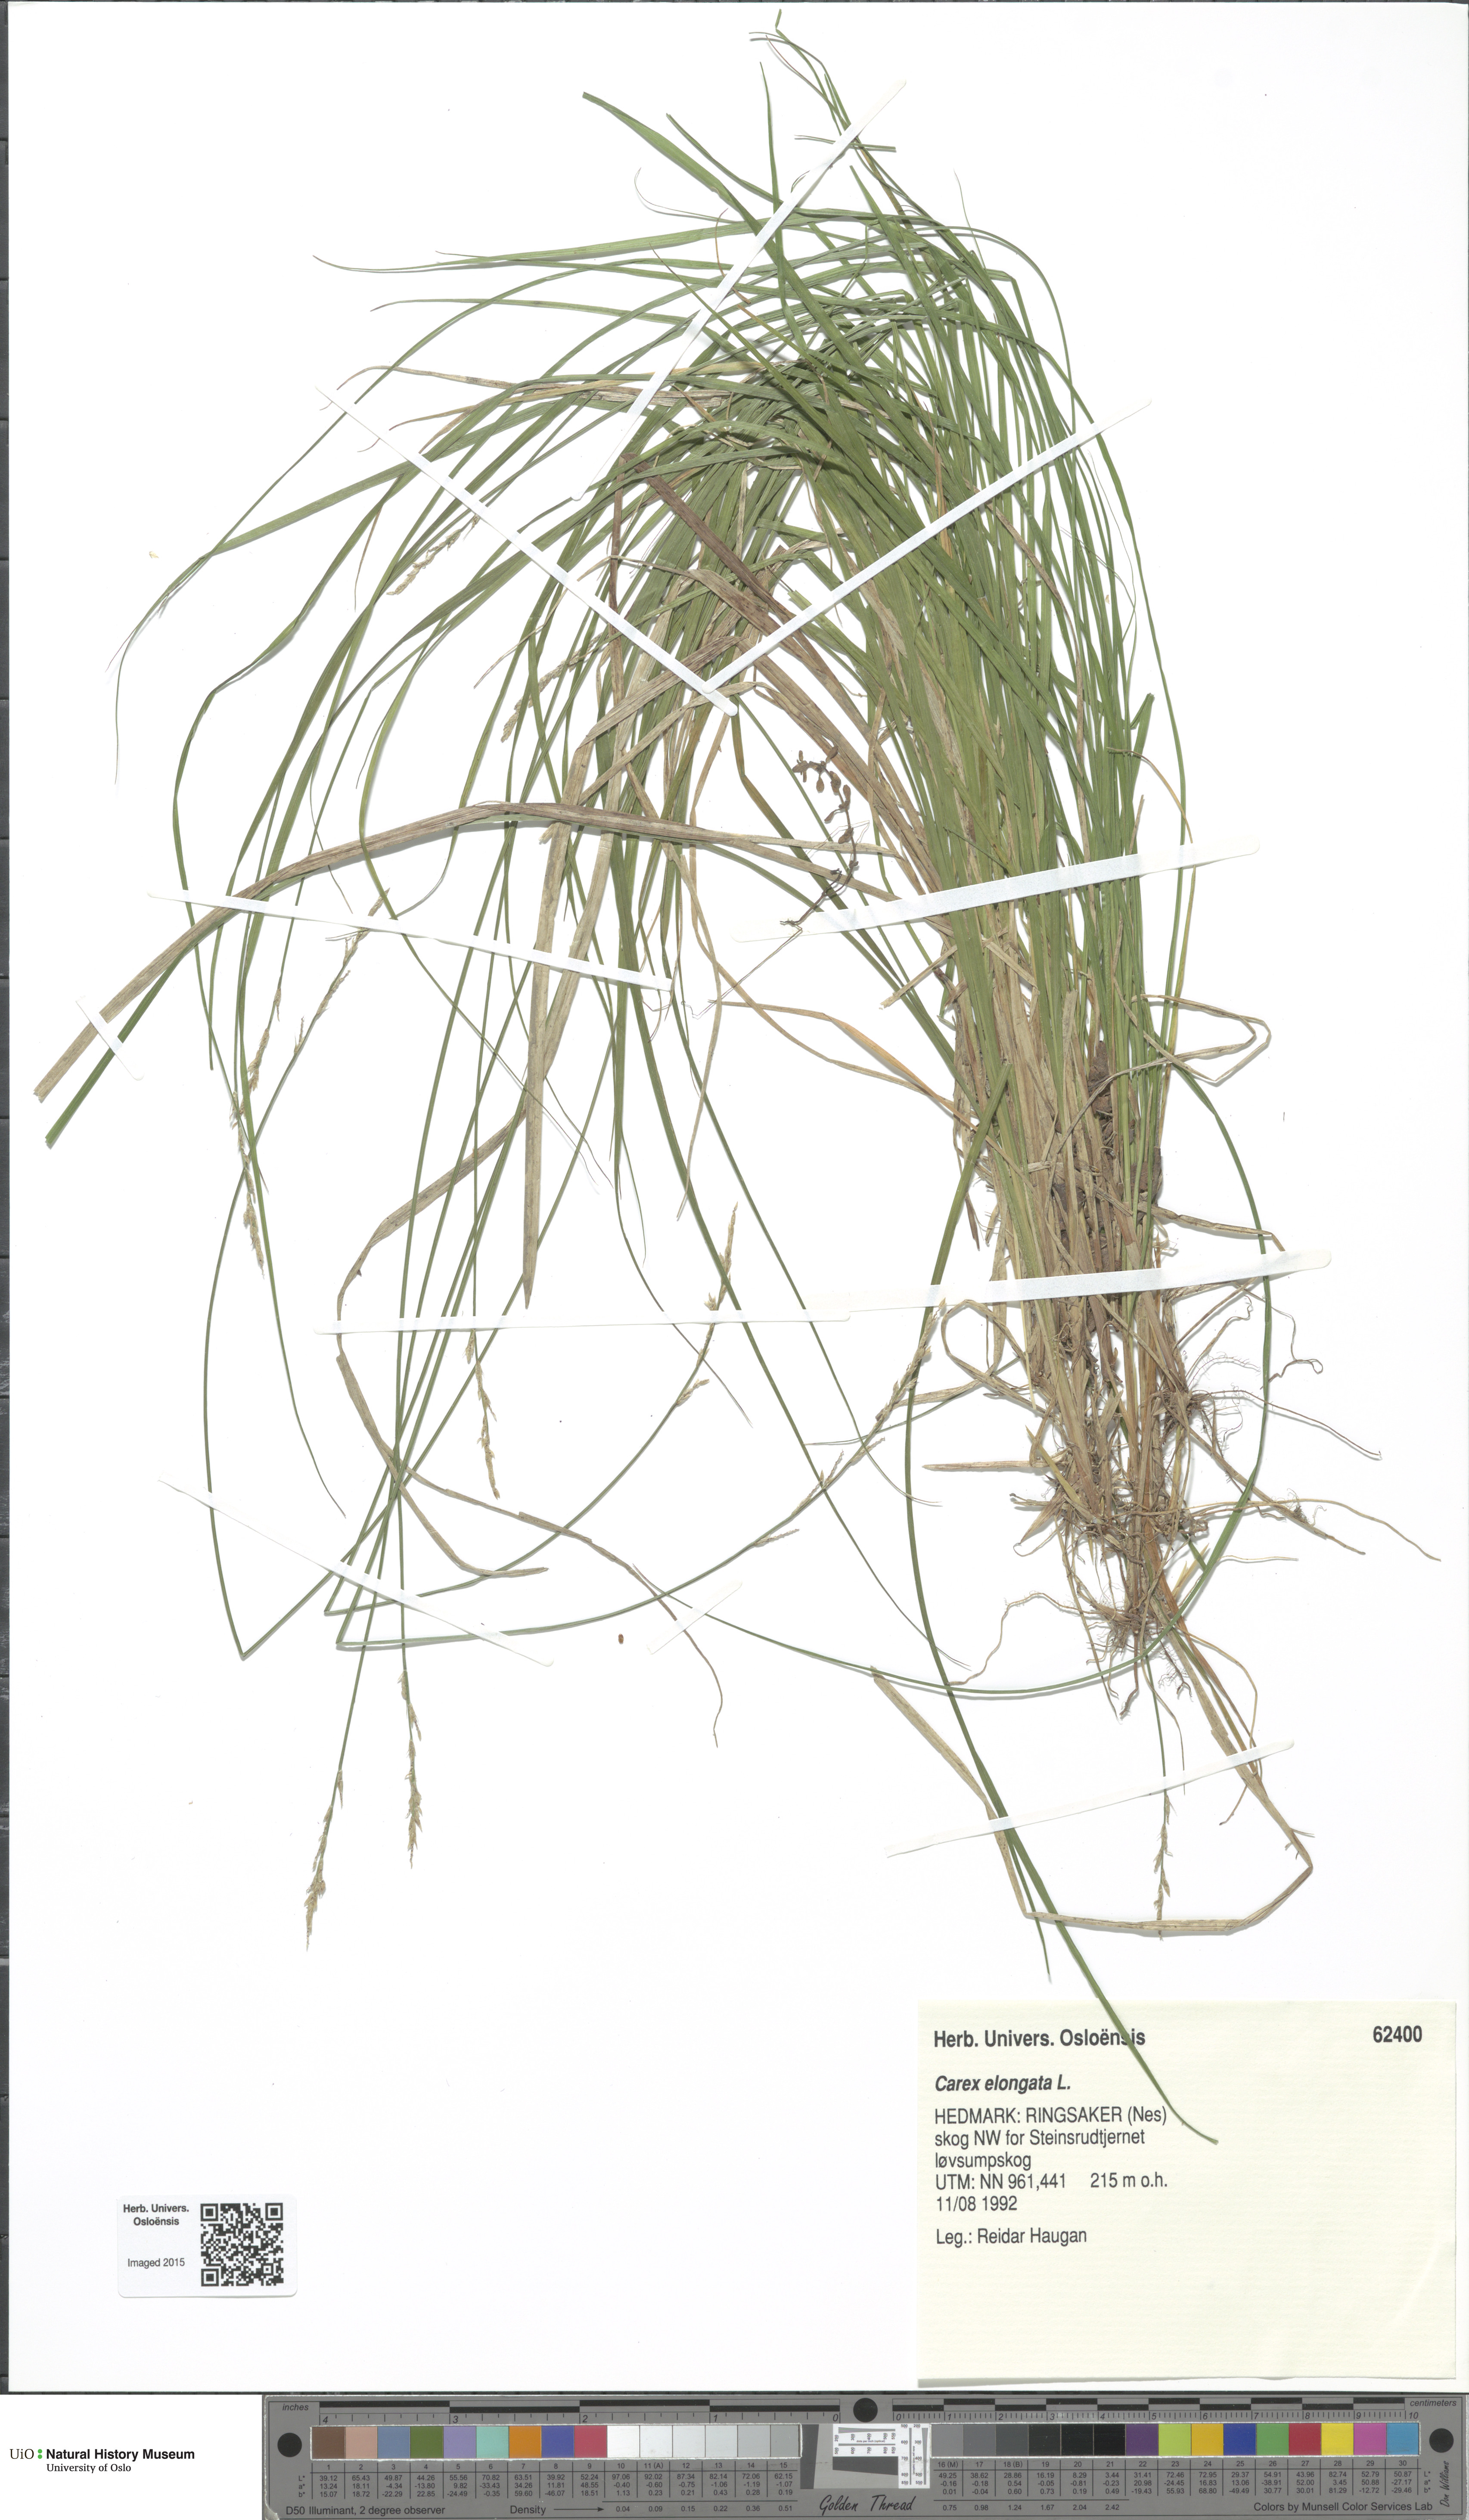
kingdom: Plantae
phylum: Tracheophyta
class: Liliopsida
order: Poales
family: Cyperaceae
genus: Carex
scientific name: Carex elongata
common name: Elongated sedge
